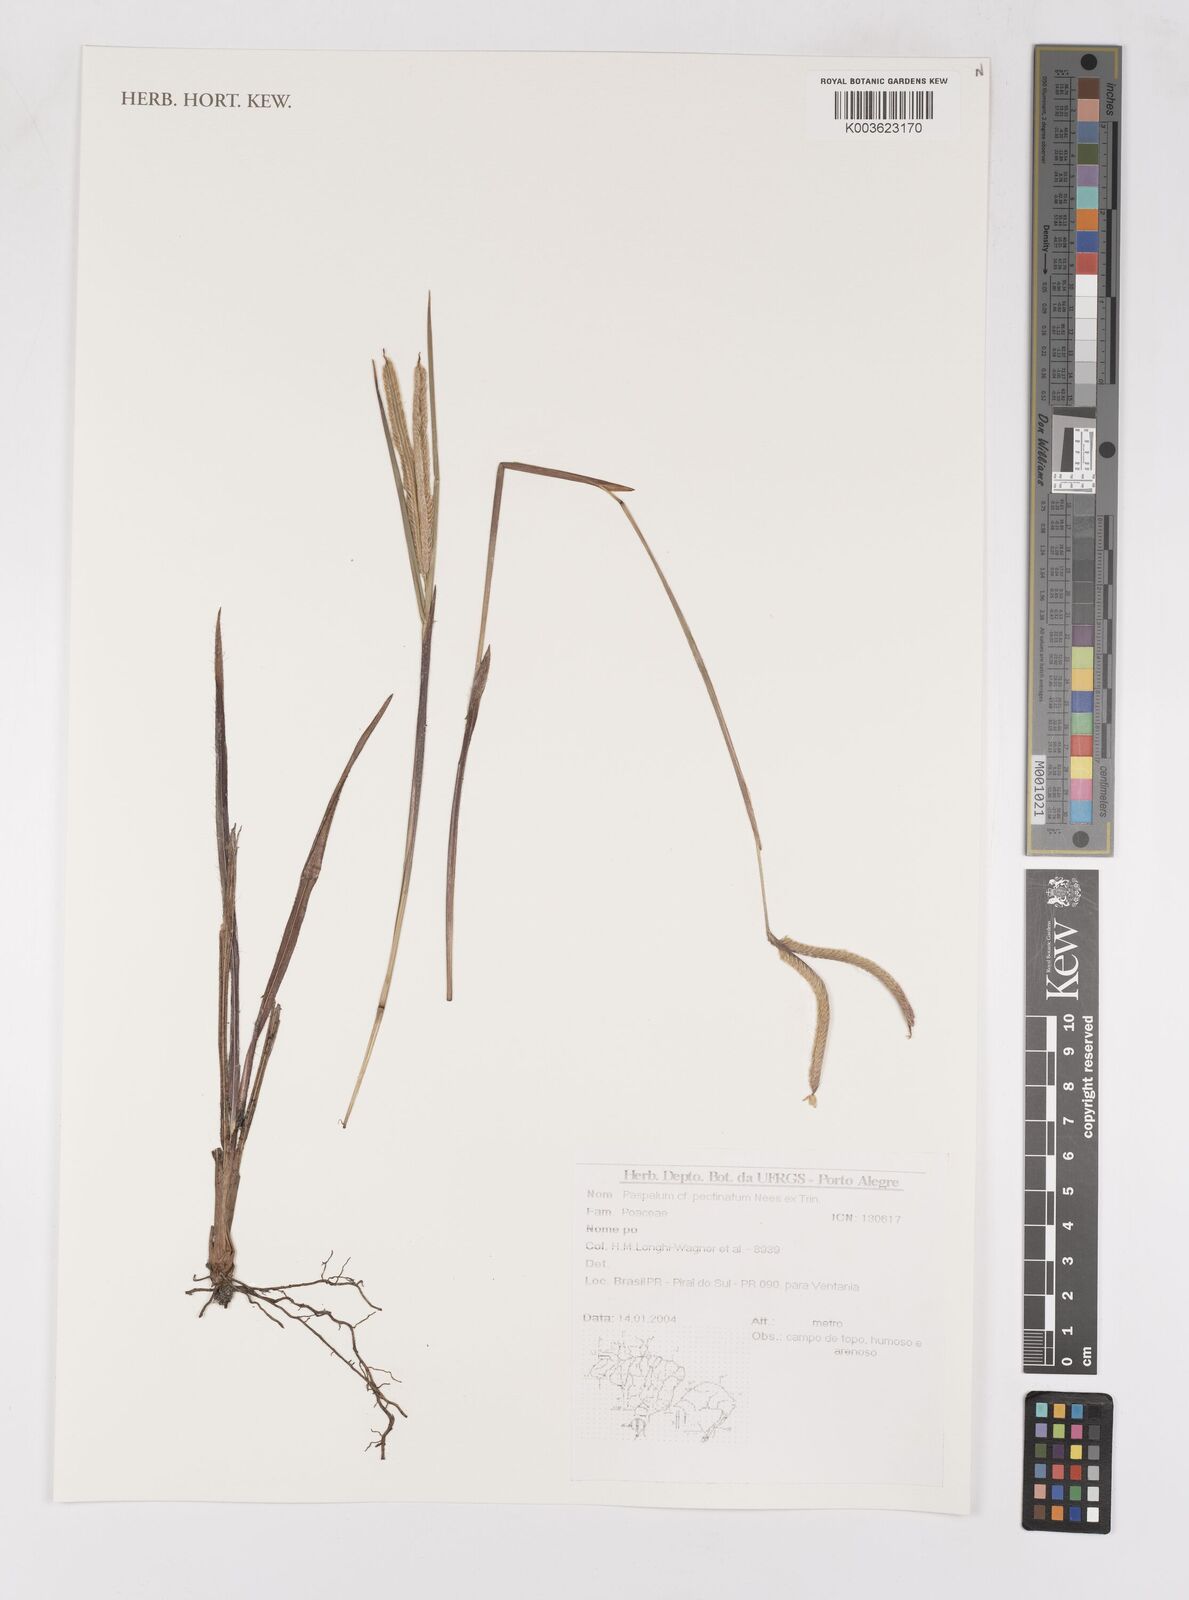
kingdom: Plantae
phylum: Tracheophyta
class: Liliopsida
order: Poales
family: Poaceae
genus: Paspalum
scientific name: Paspalum pectinatum
